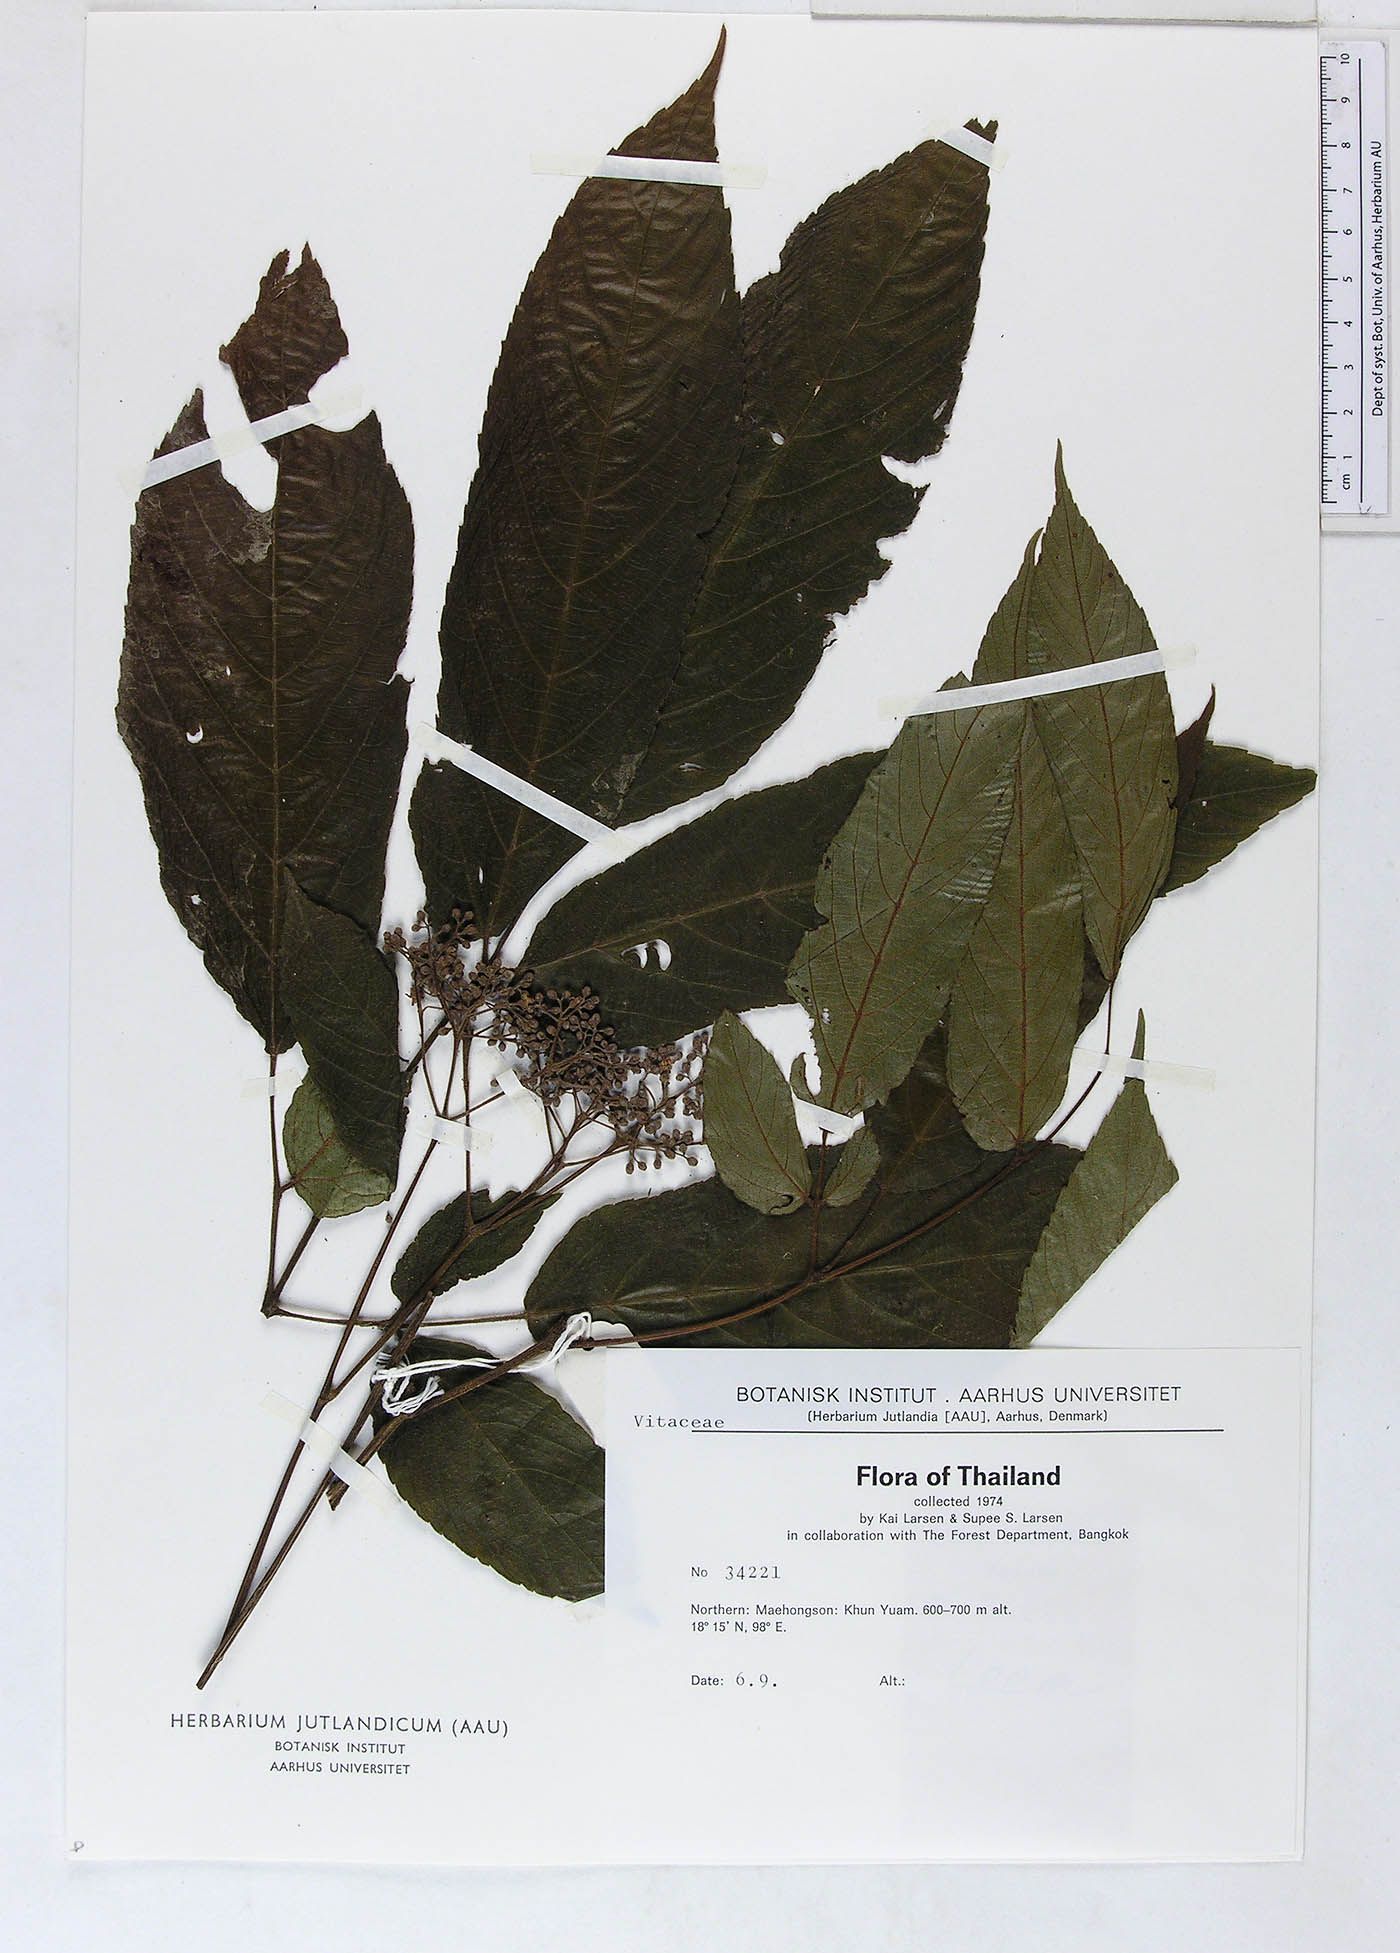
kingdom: Plantae
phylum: Tracheophyta
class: Magnoliopsida
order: Vitales
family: Vitaceae
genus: Leea
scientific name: Leea setuligera
